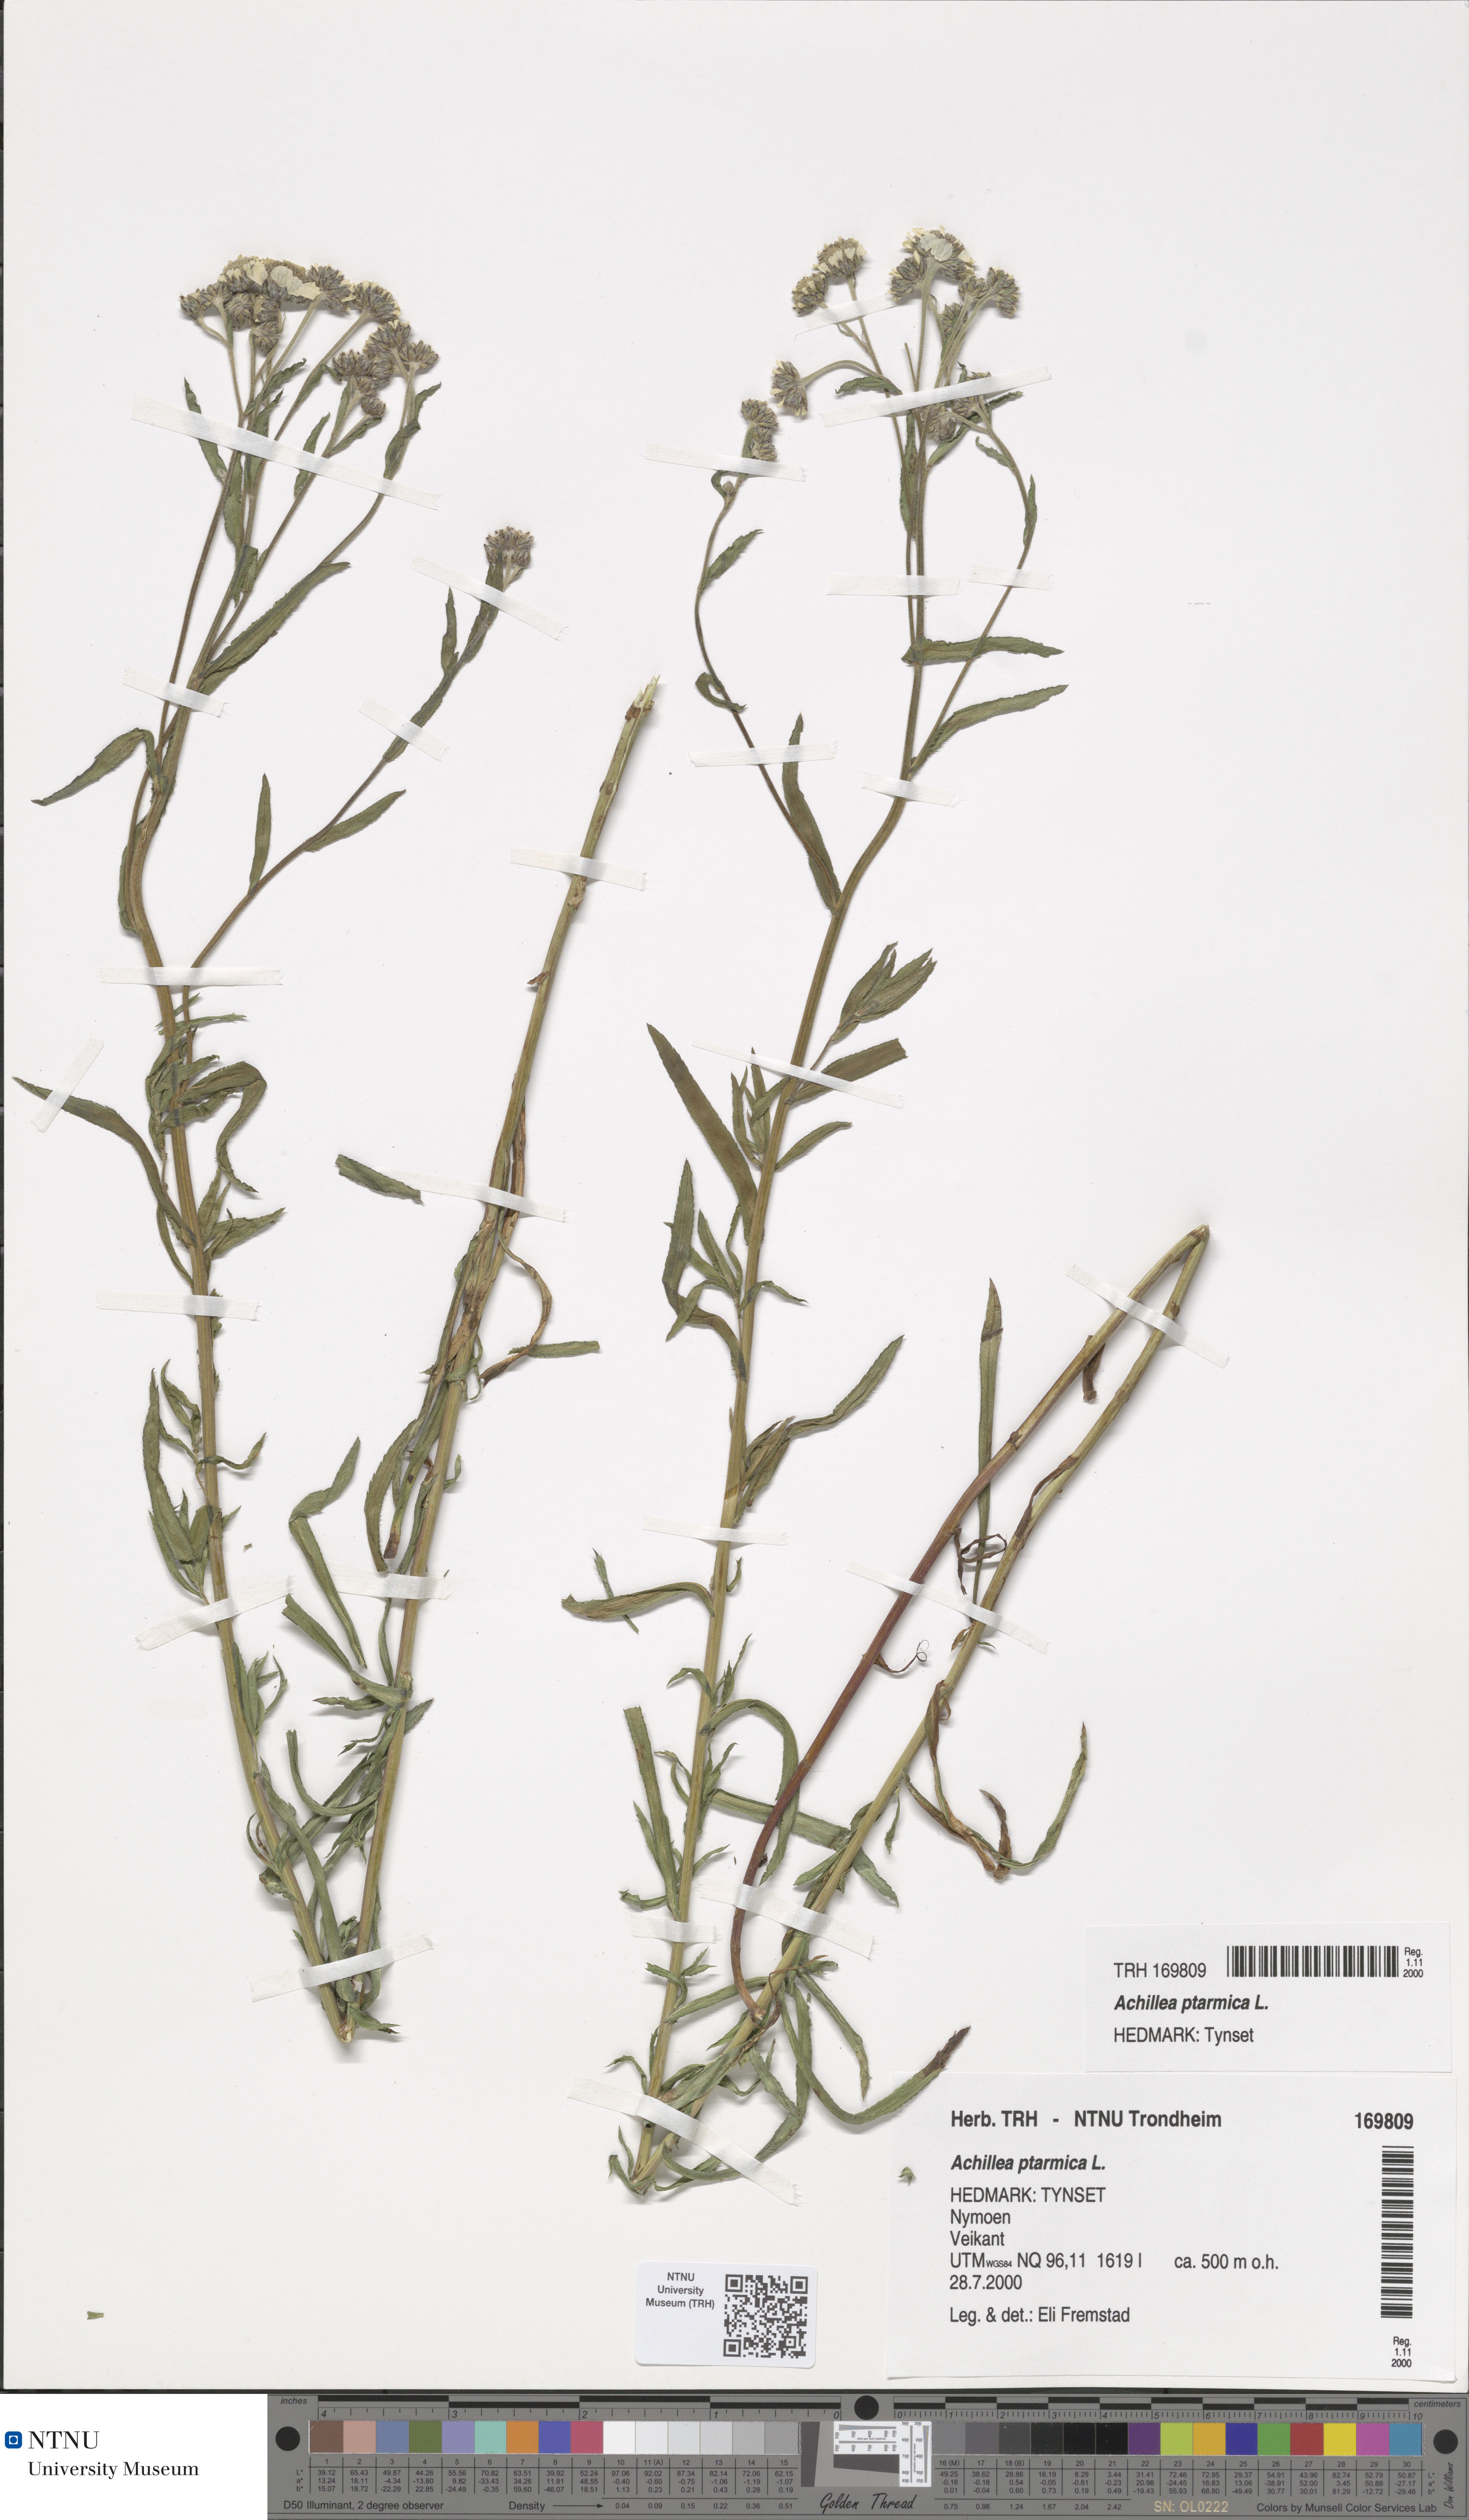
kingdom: Plantae
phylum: Tracheophyta
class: Magnoliopsida
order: Asterales
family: Asteraceae
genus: Achillea
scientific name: Achillea ptarmica
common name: Sneezeweed
